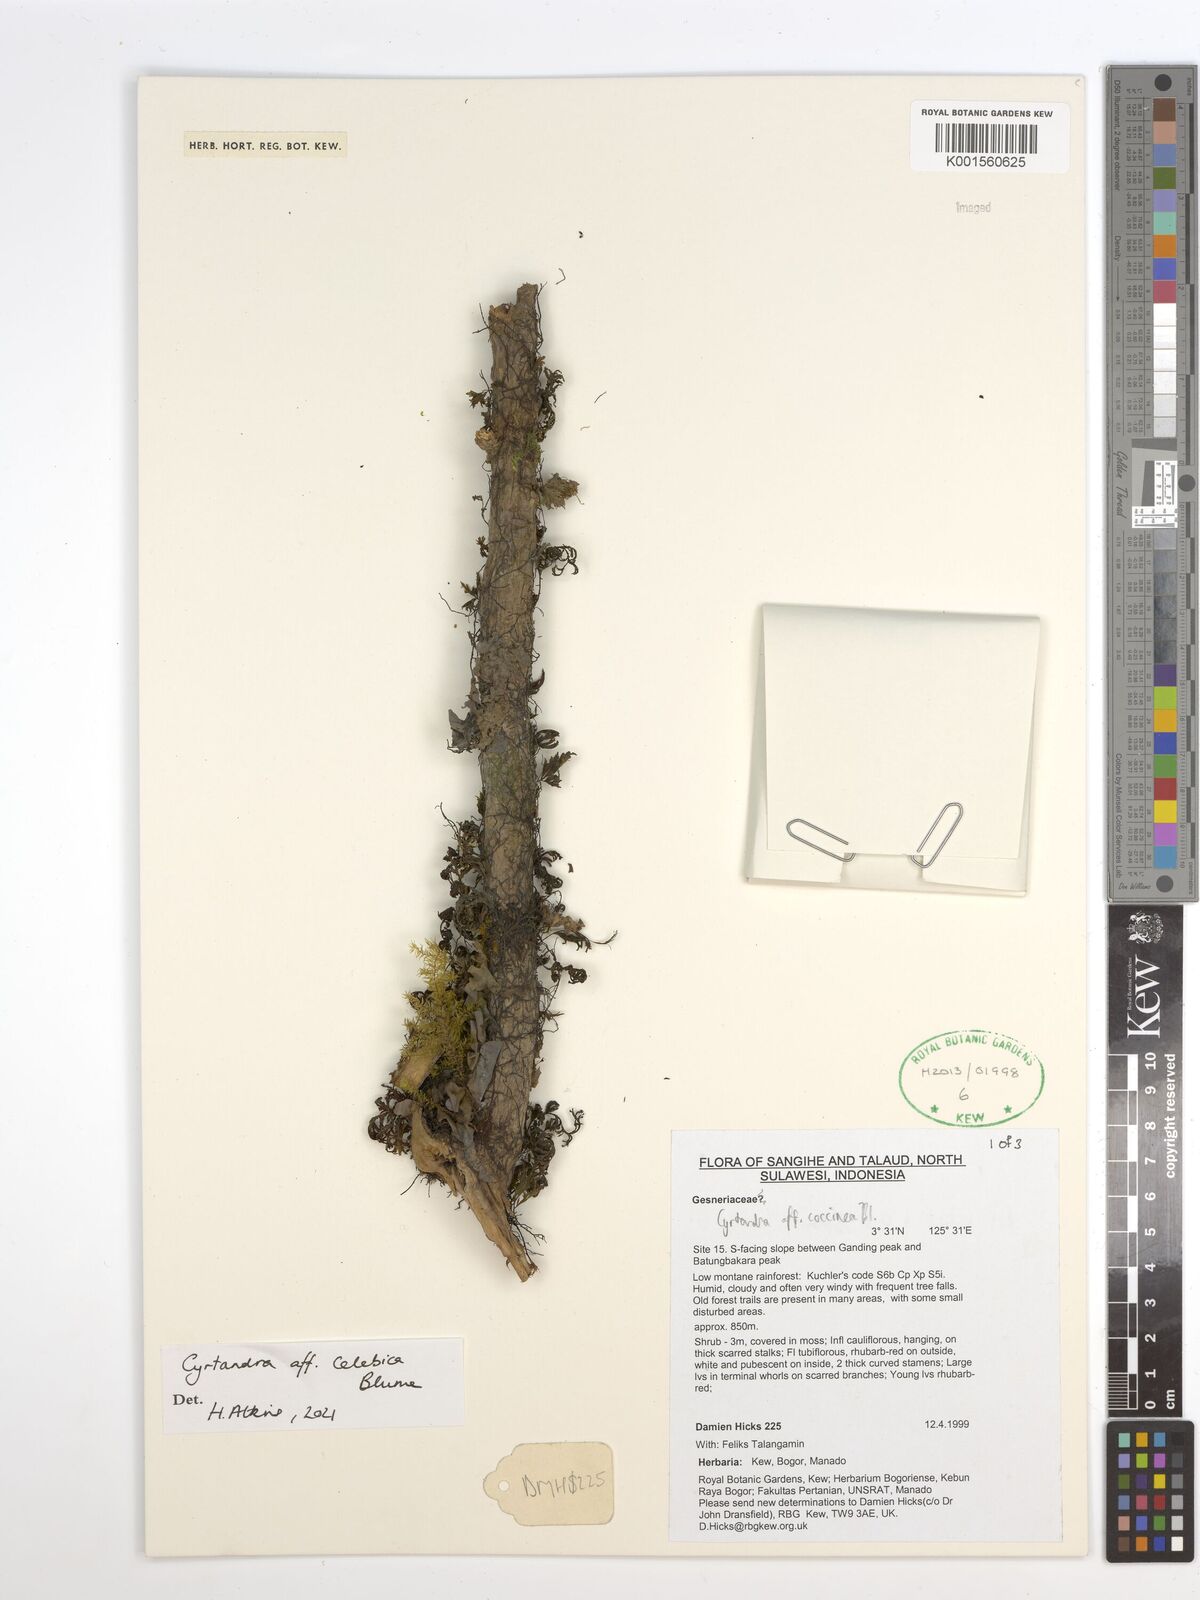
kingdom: Plantae
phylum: Tracheophyta
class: Magnoliopsida
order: Lamiales
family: Gesneriaceae
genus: Cyrtandra
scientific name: Cyrtandra coccinea
